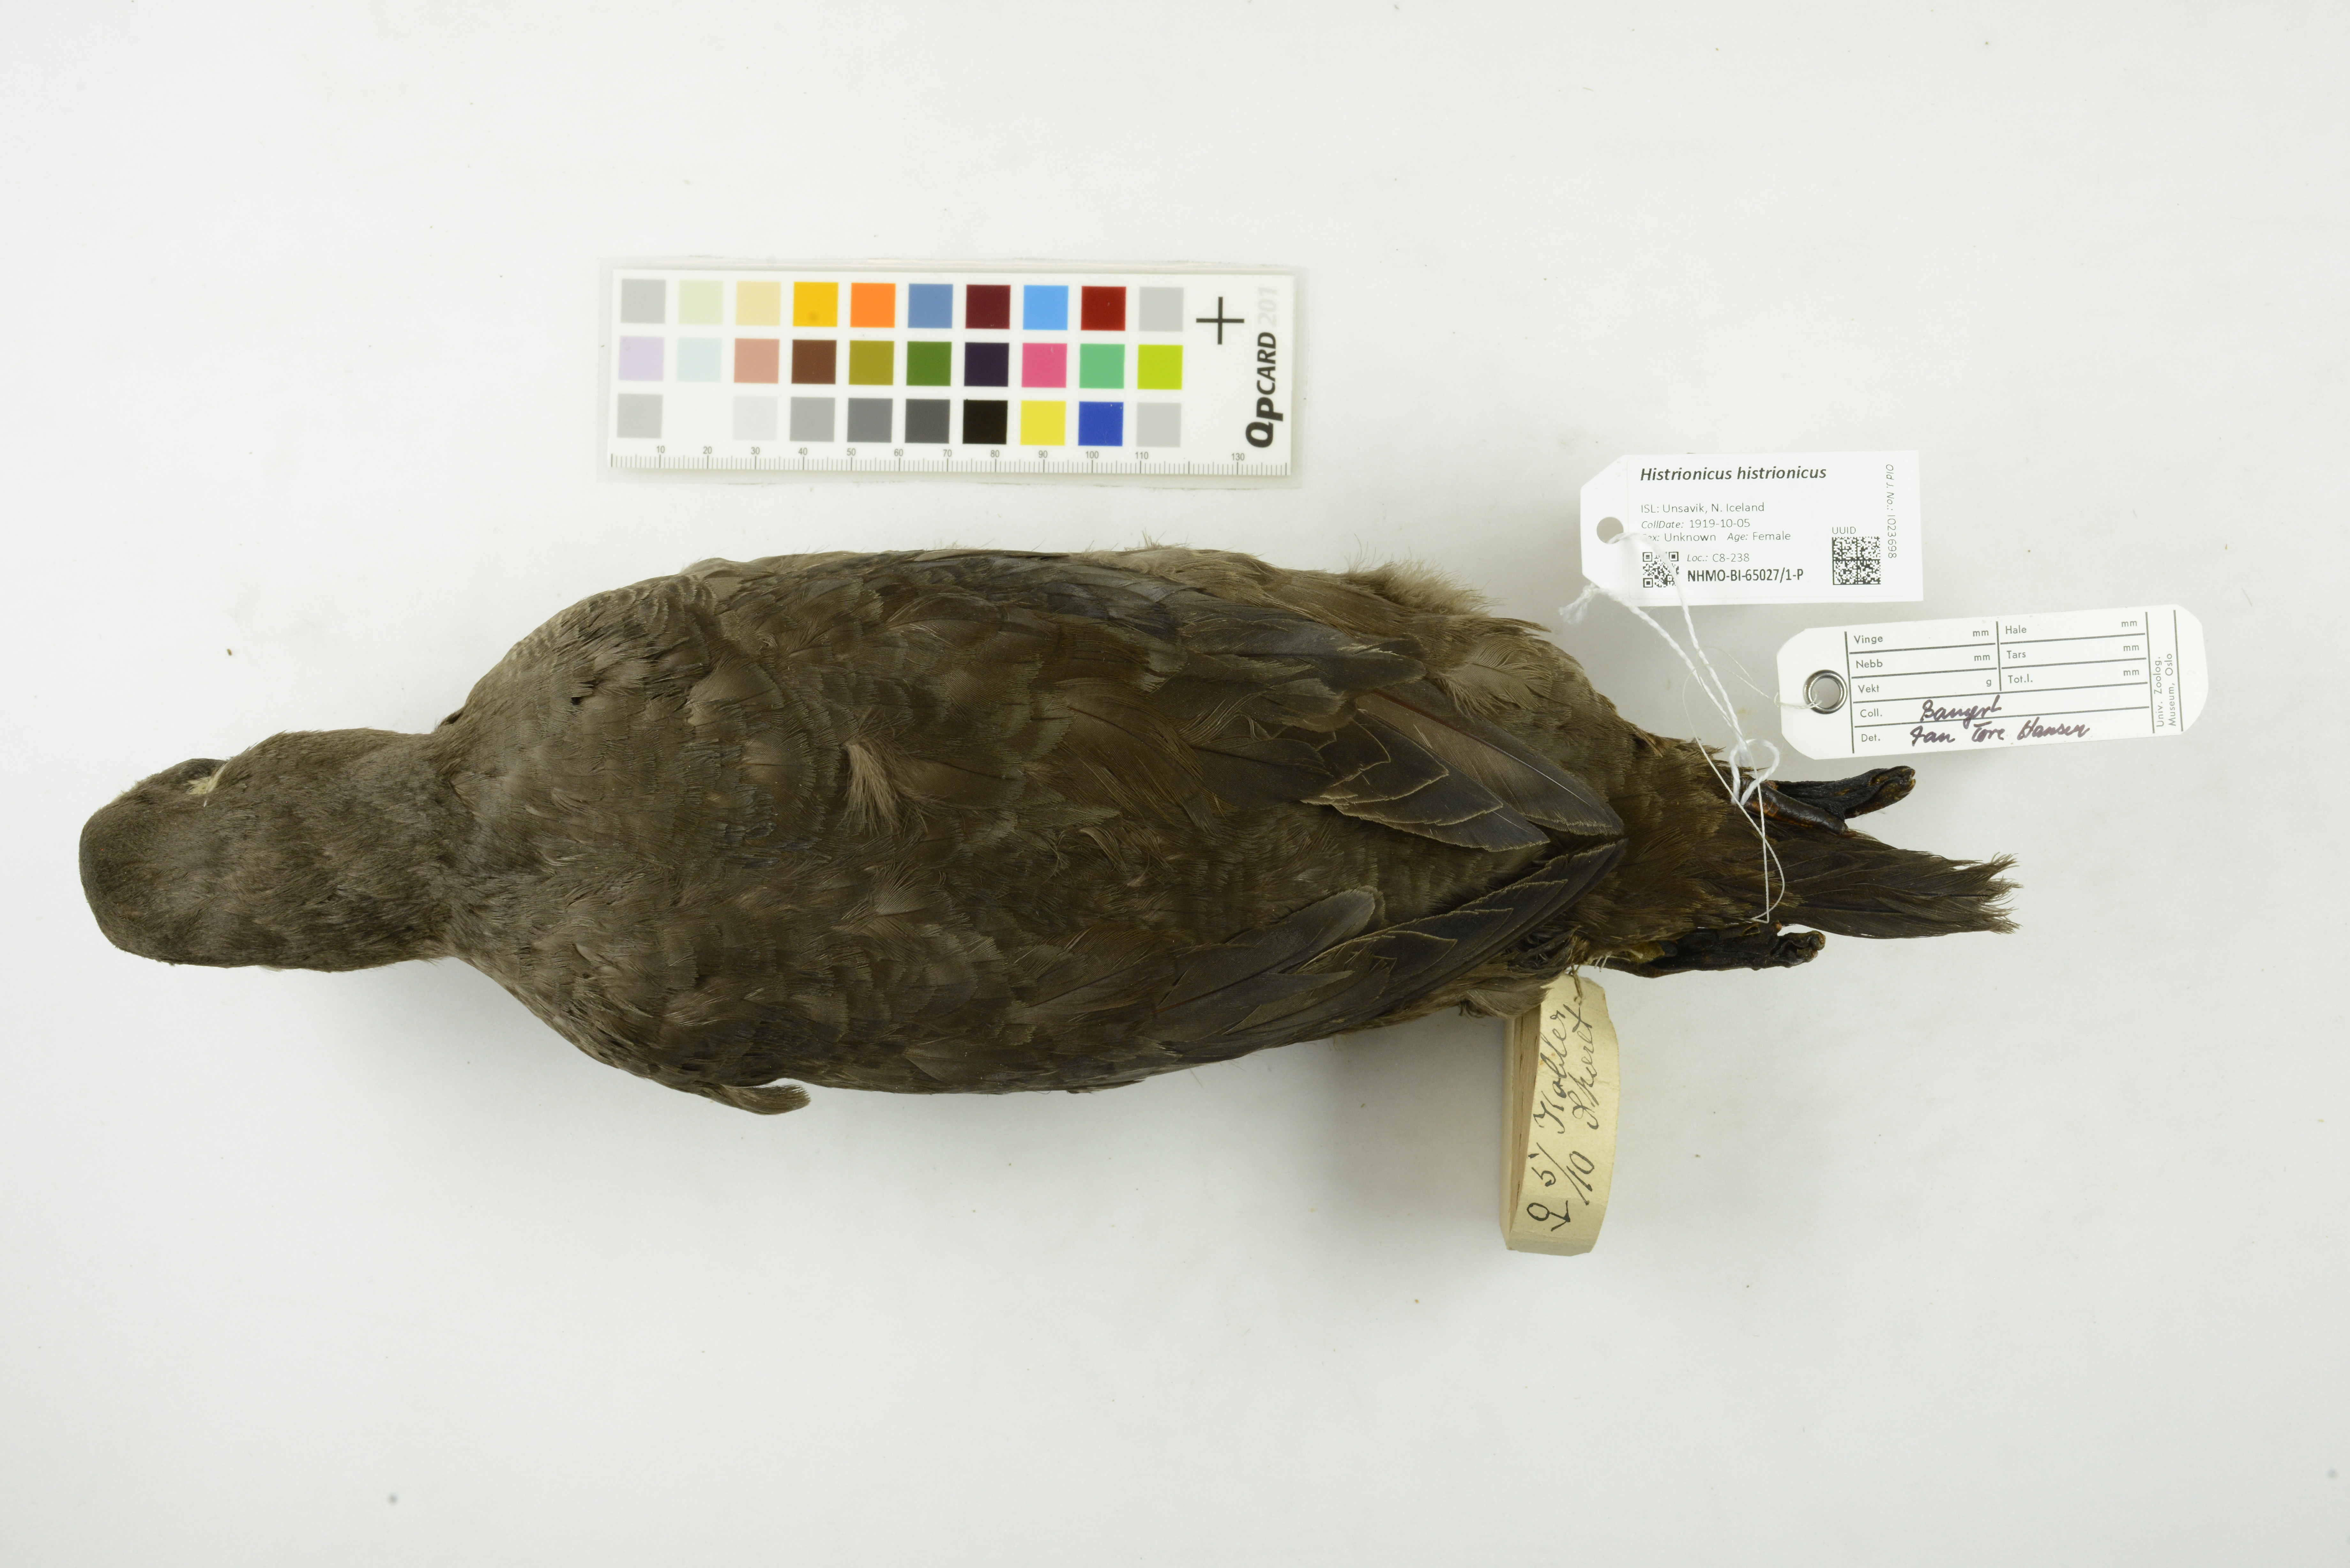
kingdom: Animalia
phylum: Chordata
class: Aves
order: Anseriformes
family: Anatidae
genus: Histrionicus
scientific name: Histrionicus histrionicus
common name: Harlequin duck
